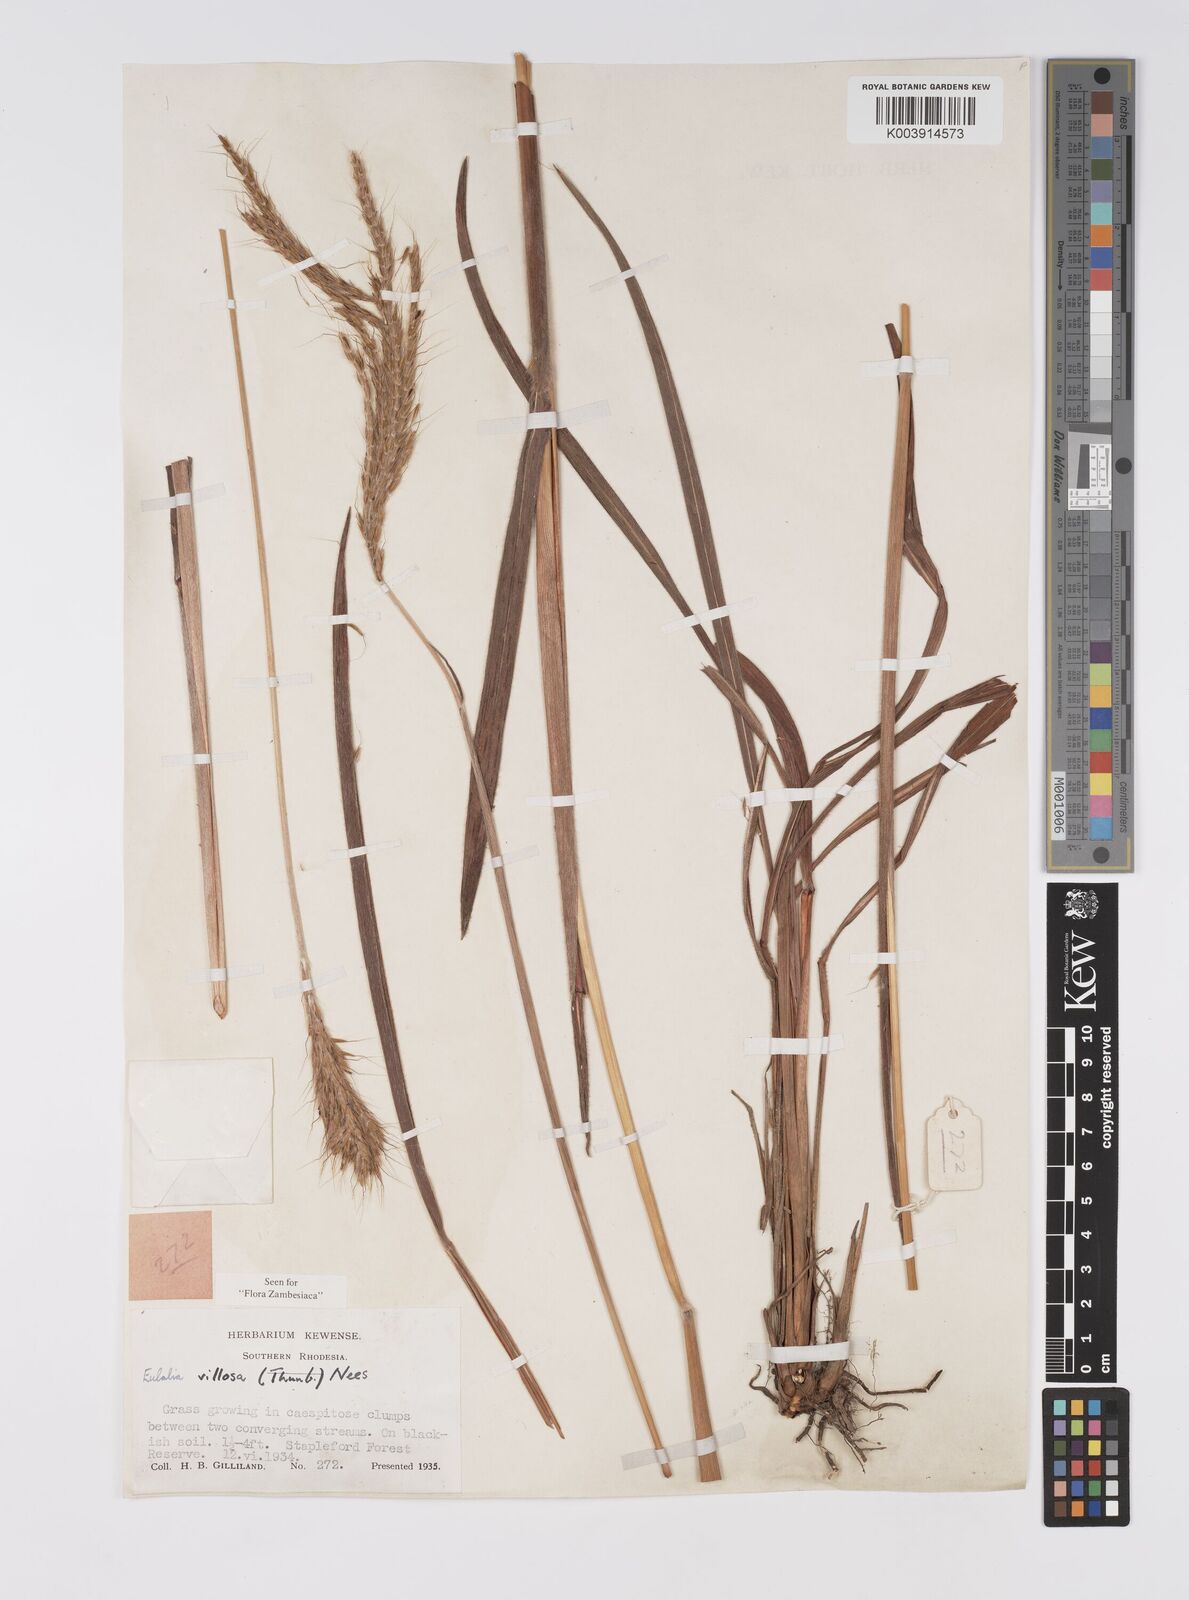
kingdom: Plantae
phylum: Tracheophyta
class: Liliopsida
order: Poales
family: Poaceae
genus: Eulalia
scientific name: Eulalia villosa
